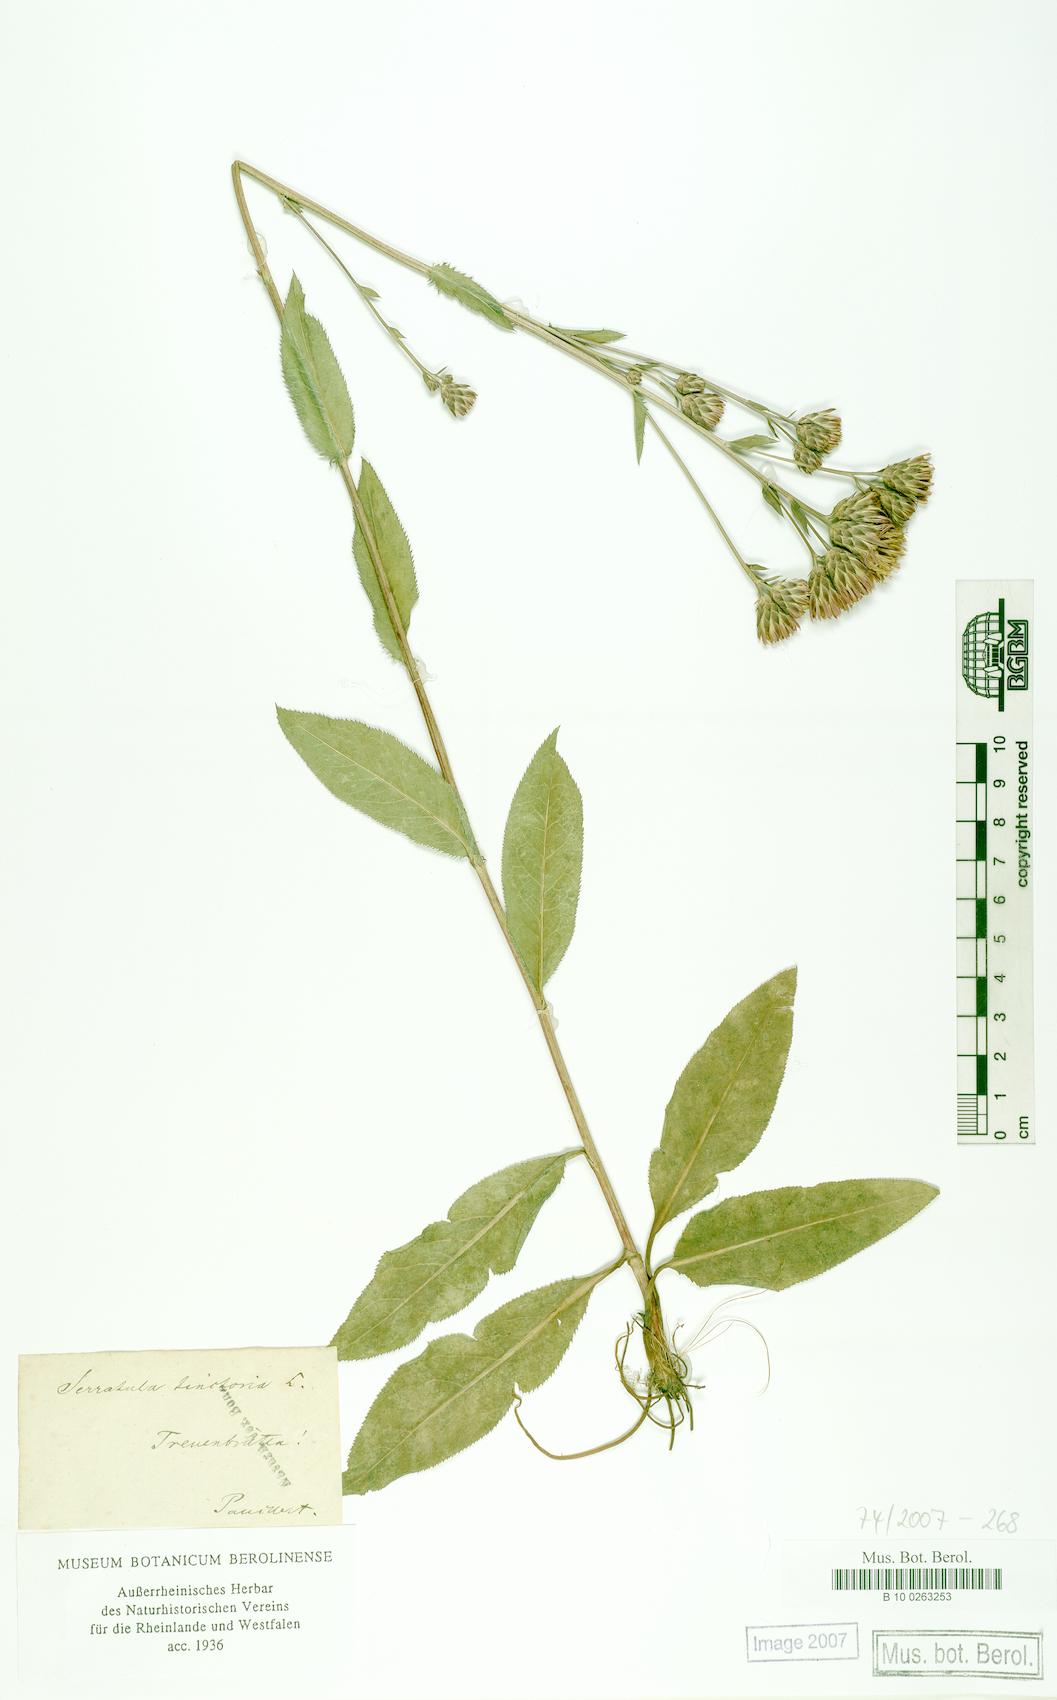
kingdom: Plantae
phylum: Tracheophyta
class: Magnoliopsida
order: Asterales
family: Asteraceae
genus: Serratula
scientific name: Serratula tinctoria
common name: Saw-wort
